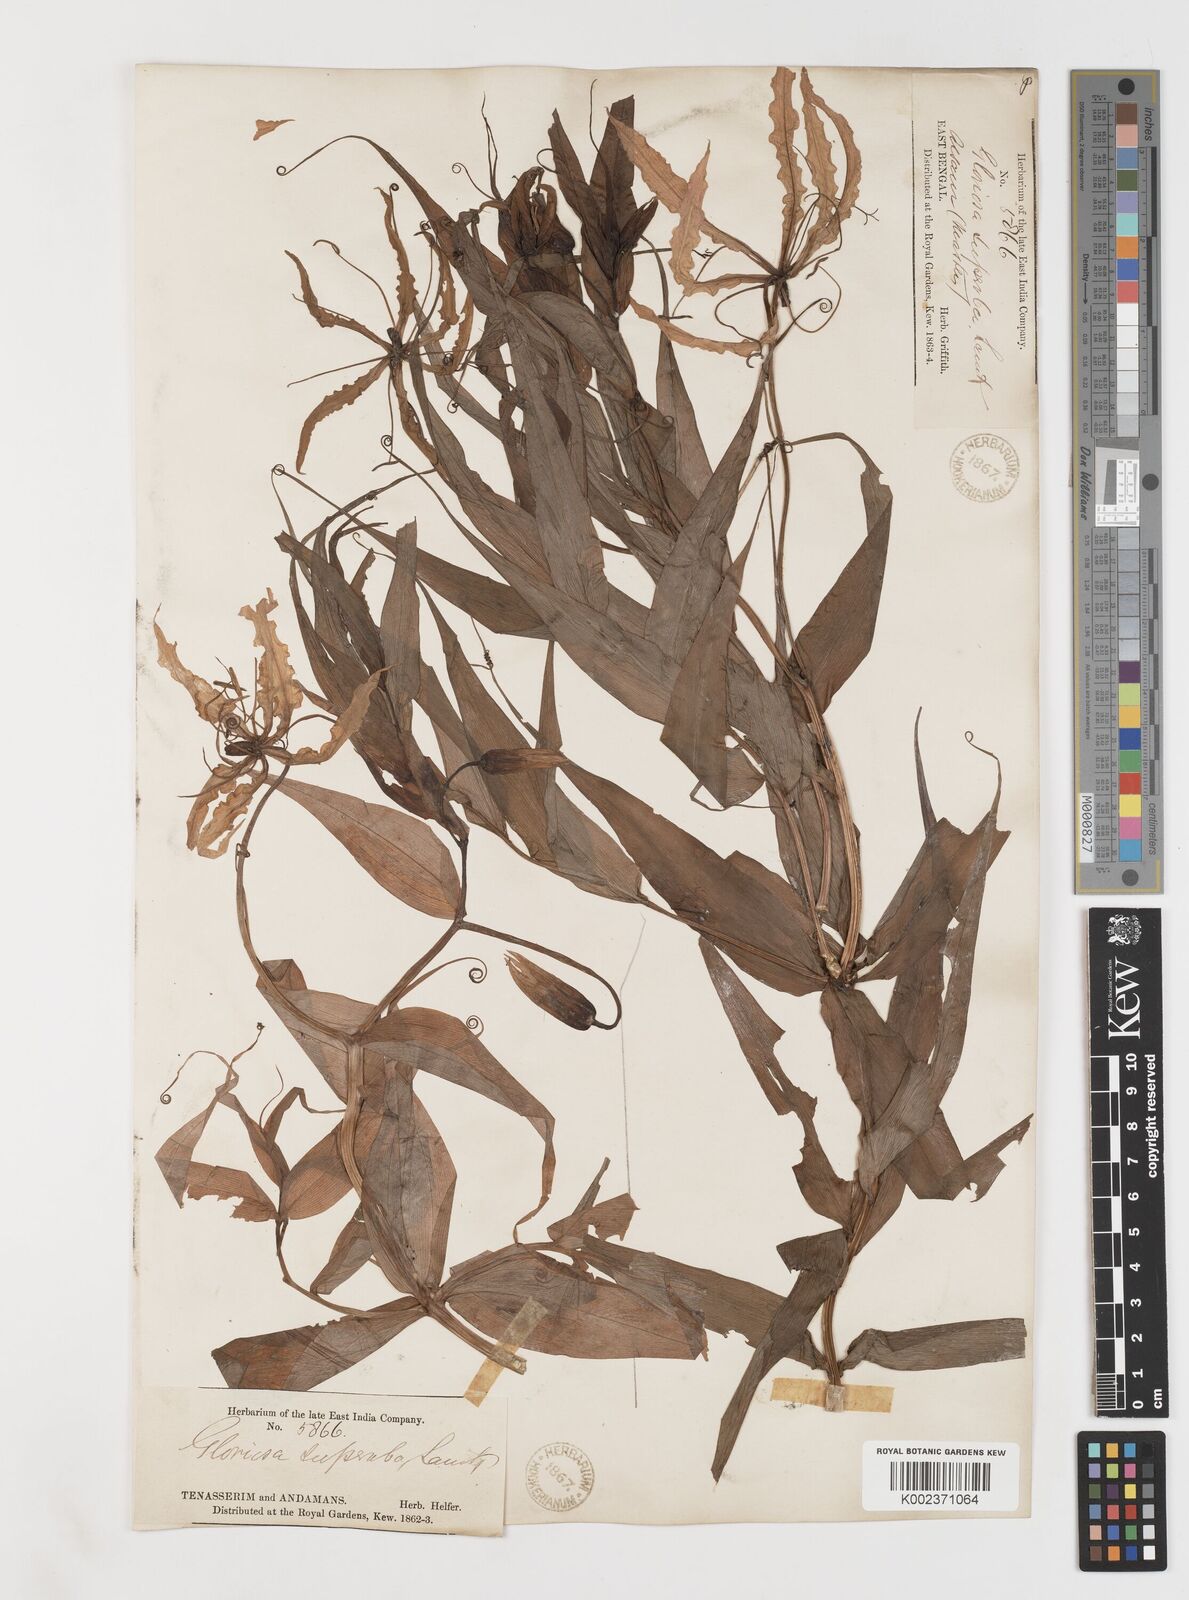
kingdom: Plantae
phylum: Tracheophyta
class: Liliopsida
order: Liliales
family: Colchicaceae
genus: Gloriosa
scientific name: Gloriosa superba
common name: Flame lily
